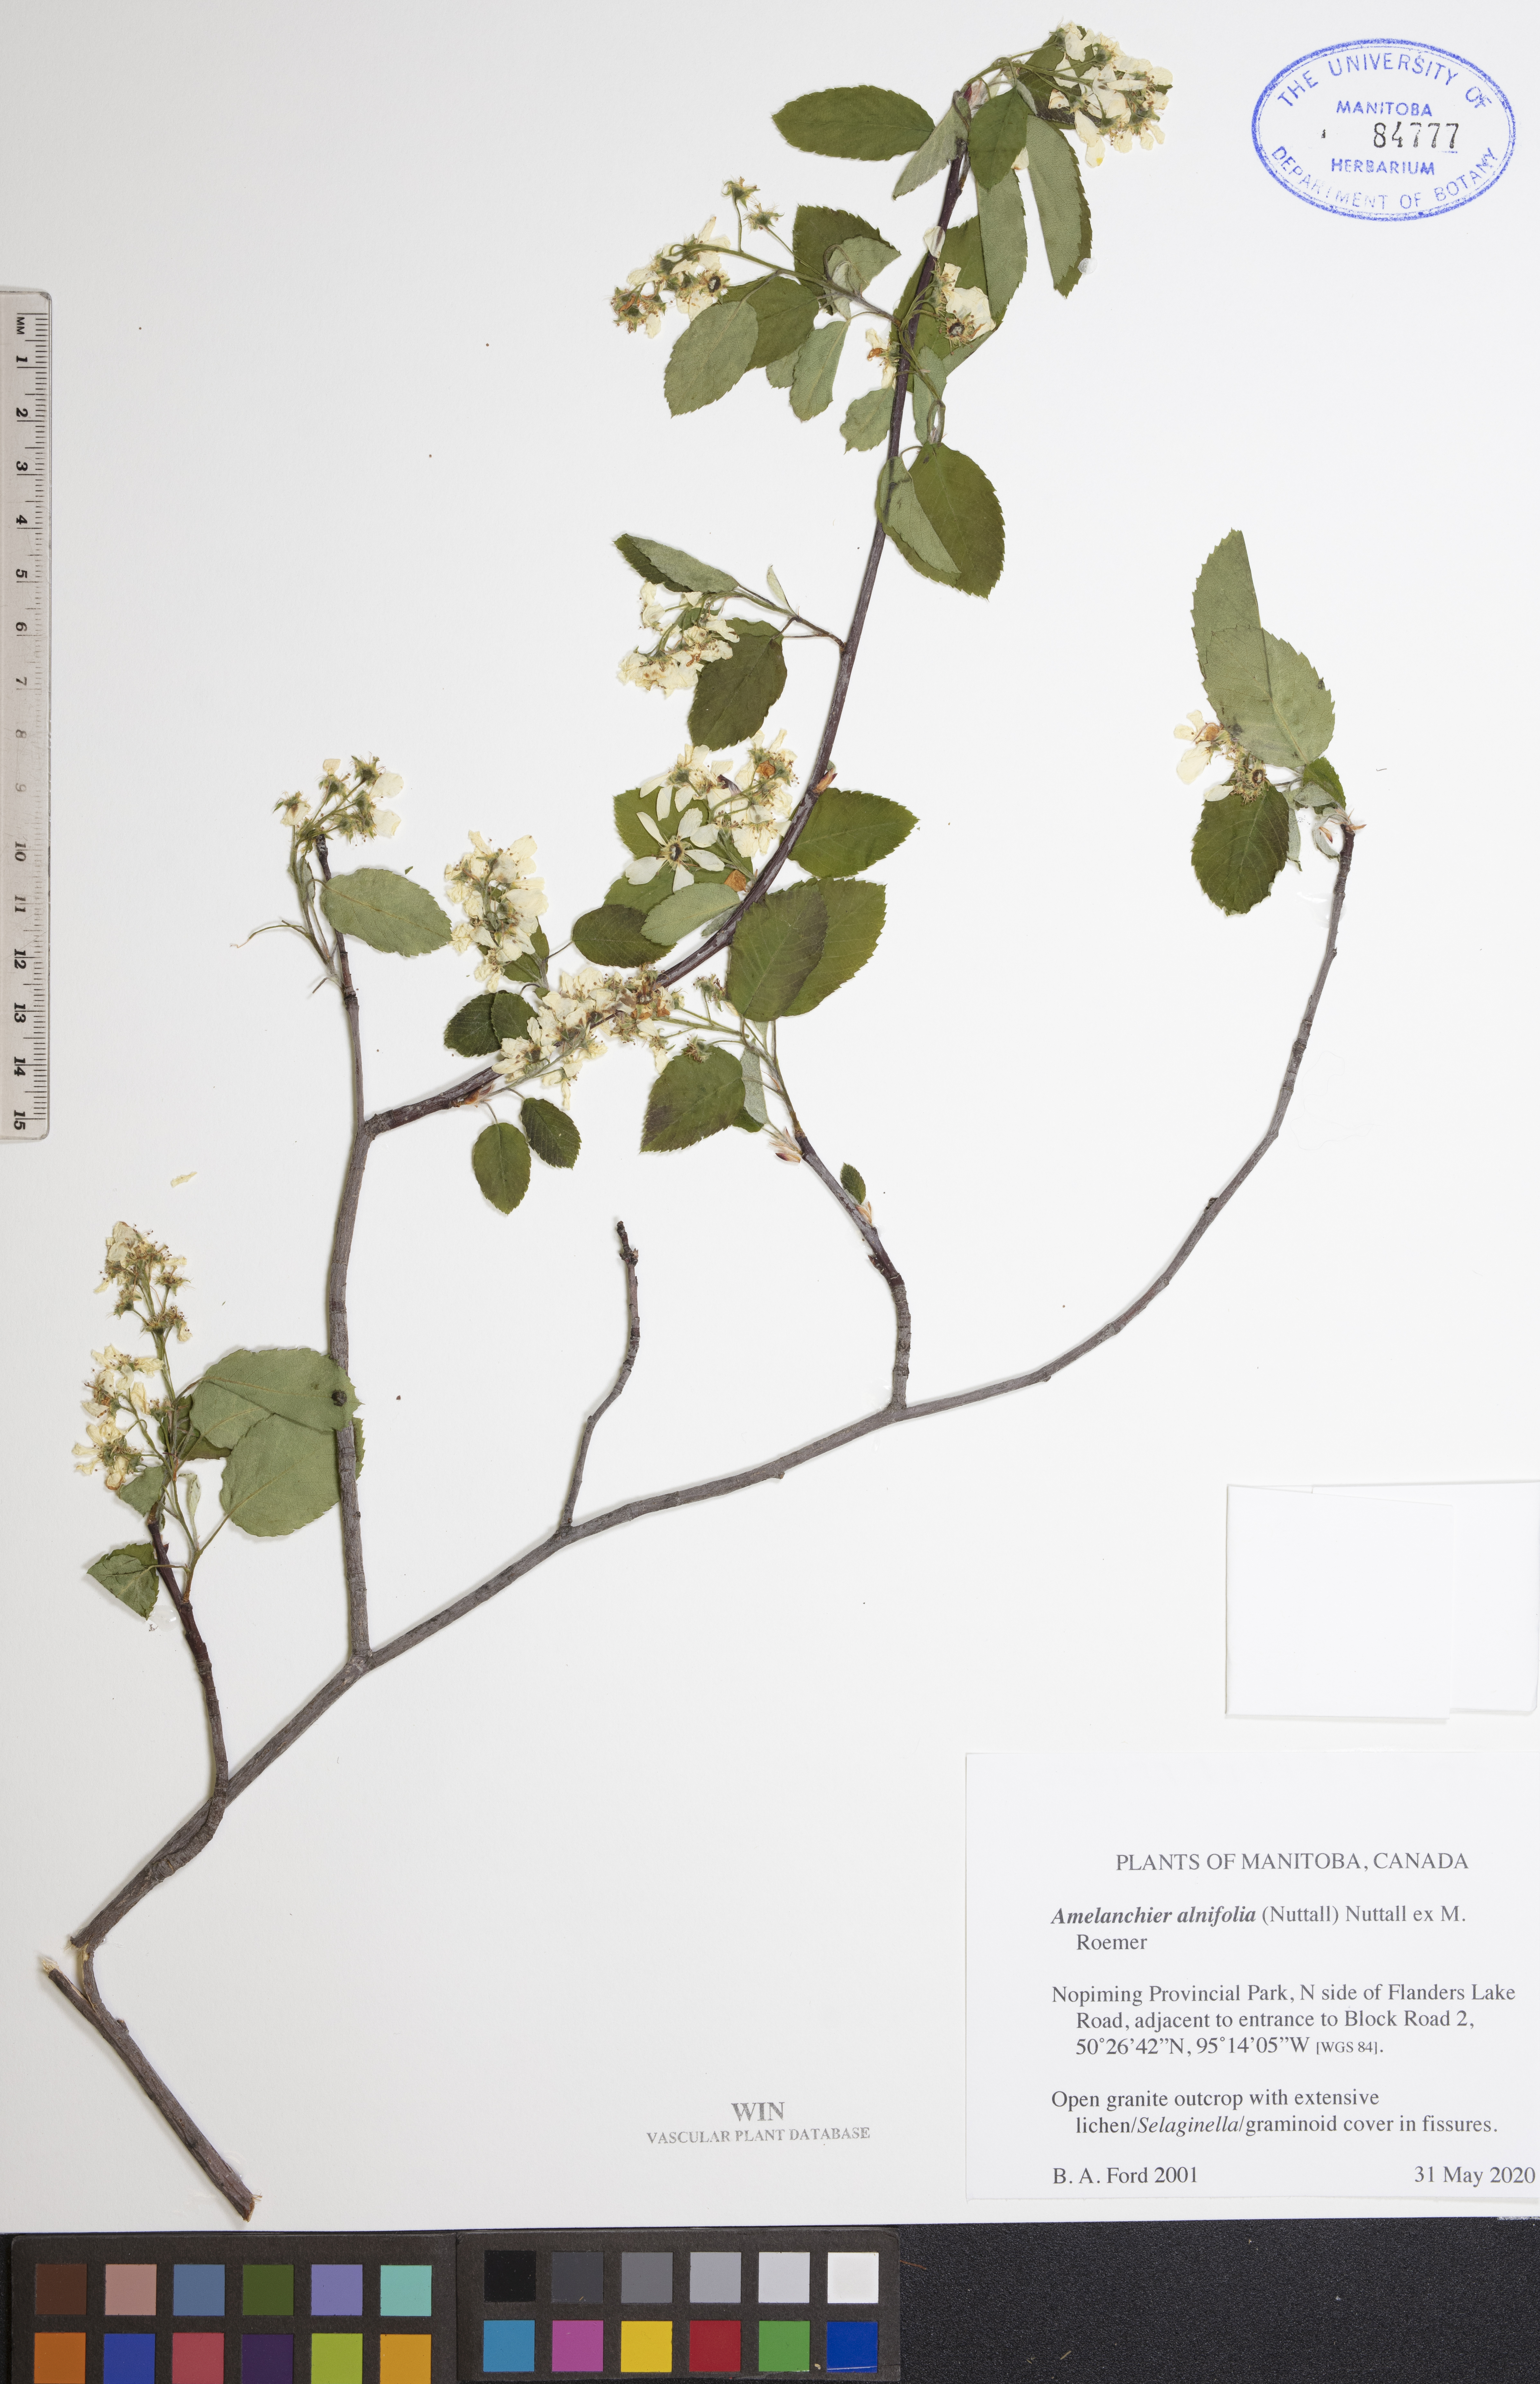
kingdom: Plantae
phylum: Tracheophyta
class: Magnoliopsida
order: Rosales
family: Rosaceae
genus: Amelanchier
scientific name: Amelanchier alnifolia
